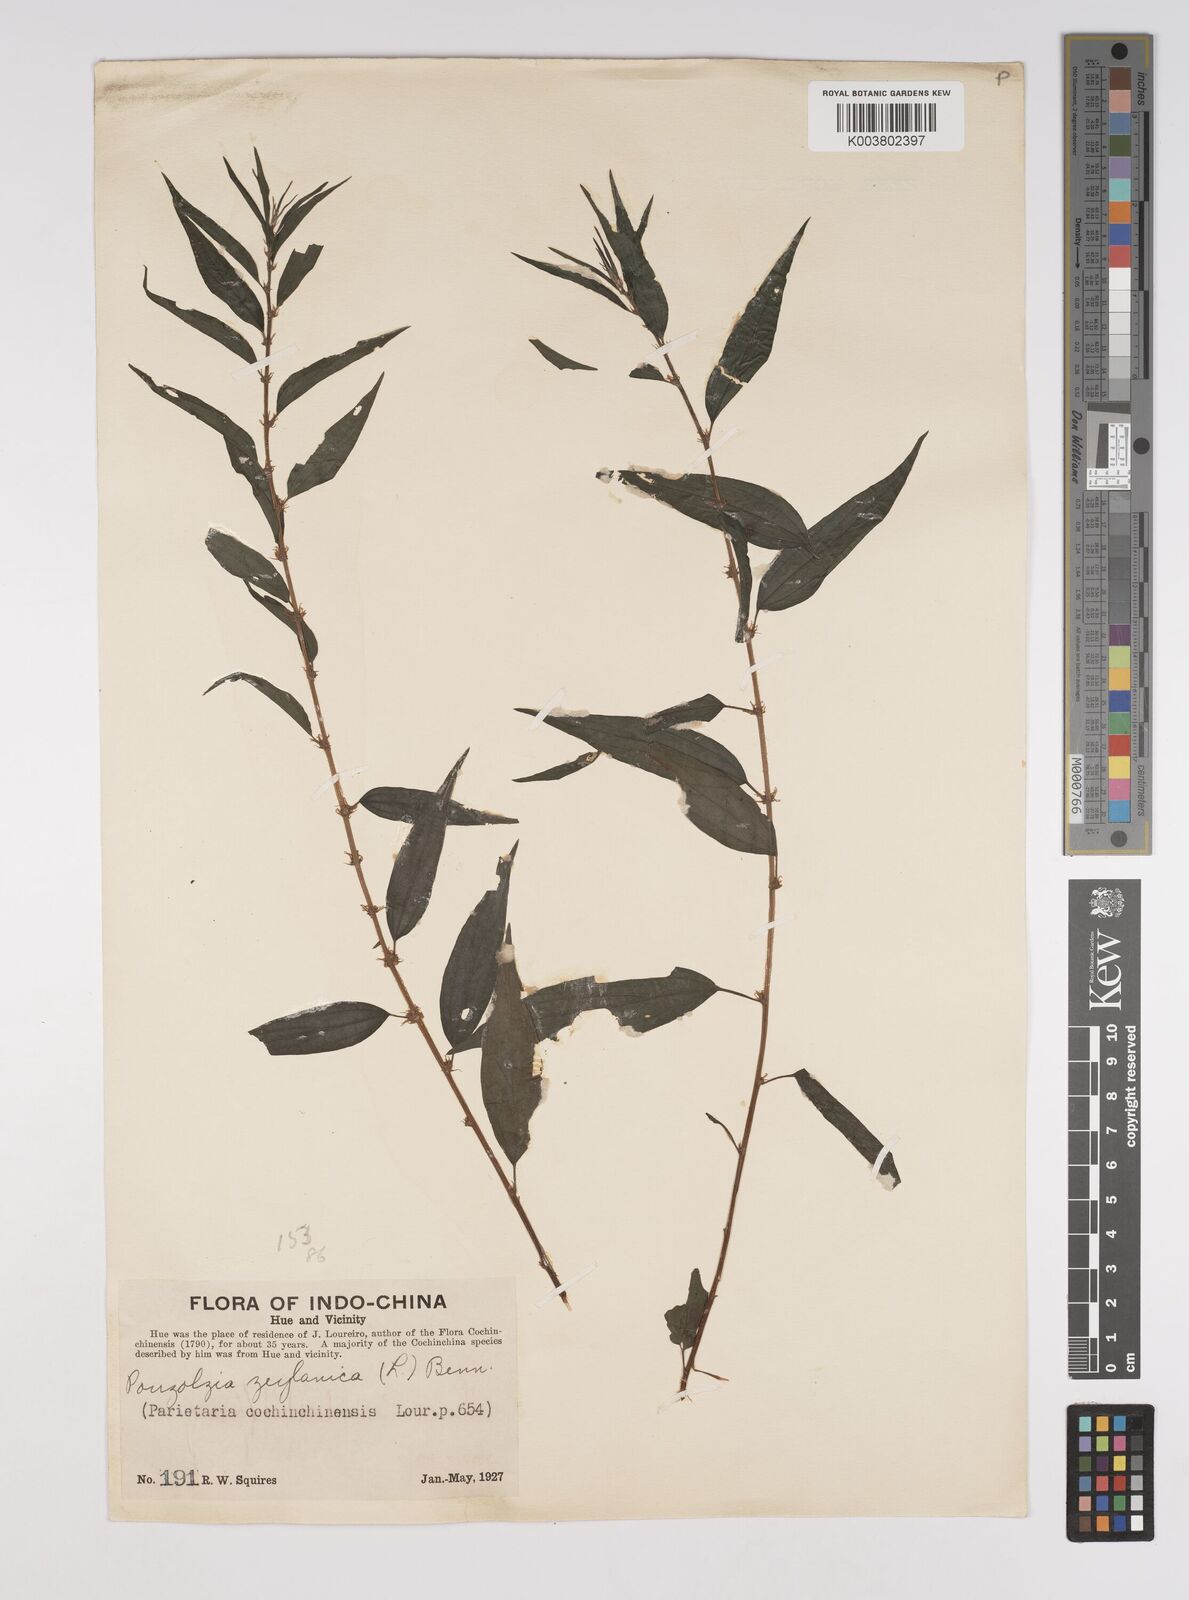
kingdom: Plantae
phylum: Tracheophyta
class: Magnoliopsida
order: Rosales
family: Urticaceae
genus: Pouzolzia
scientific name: Pouzolzia zeylanica
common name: Graceful pouzolzsbush
